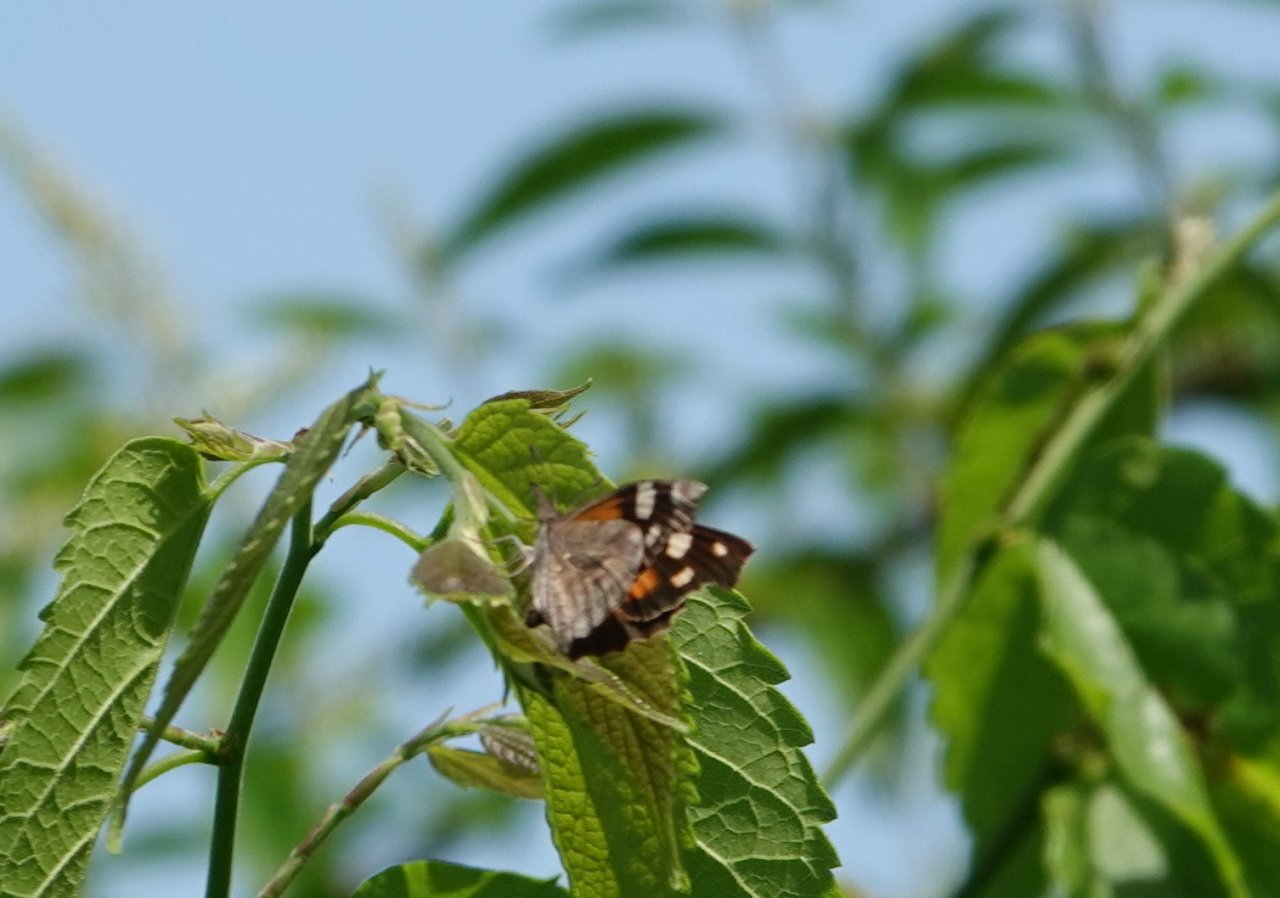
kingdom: Animalia
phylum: Arthropoda
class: Insecta
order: Lepidoptera
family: Nymphalidae
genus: Libytheana
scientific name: Libytheana carinenta
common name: American Snout
